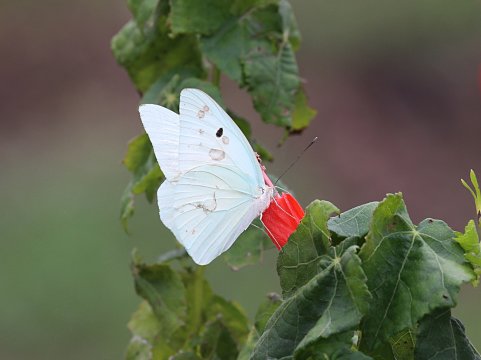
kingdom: Animalia
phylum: Arthropoda
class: Insecta
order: Lepidoptera
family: Pieridae
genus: Ganyra
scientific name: Ganyra josephina
